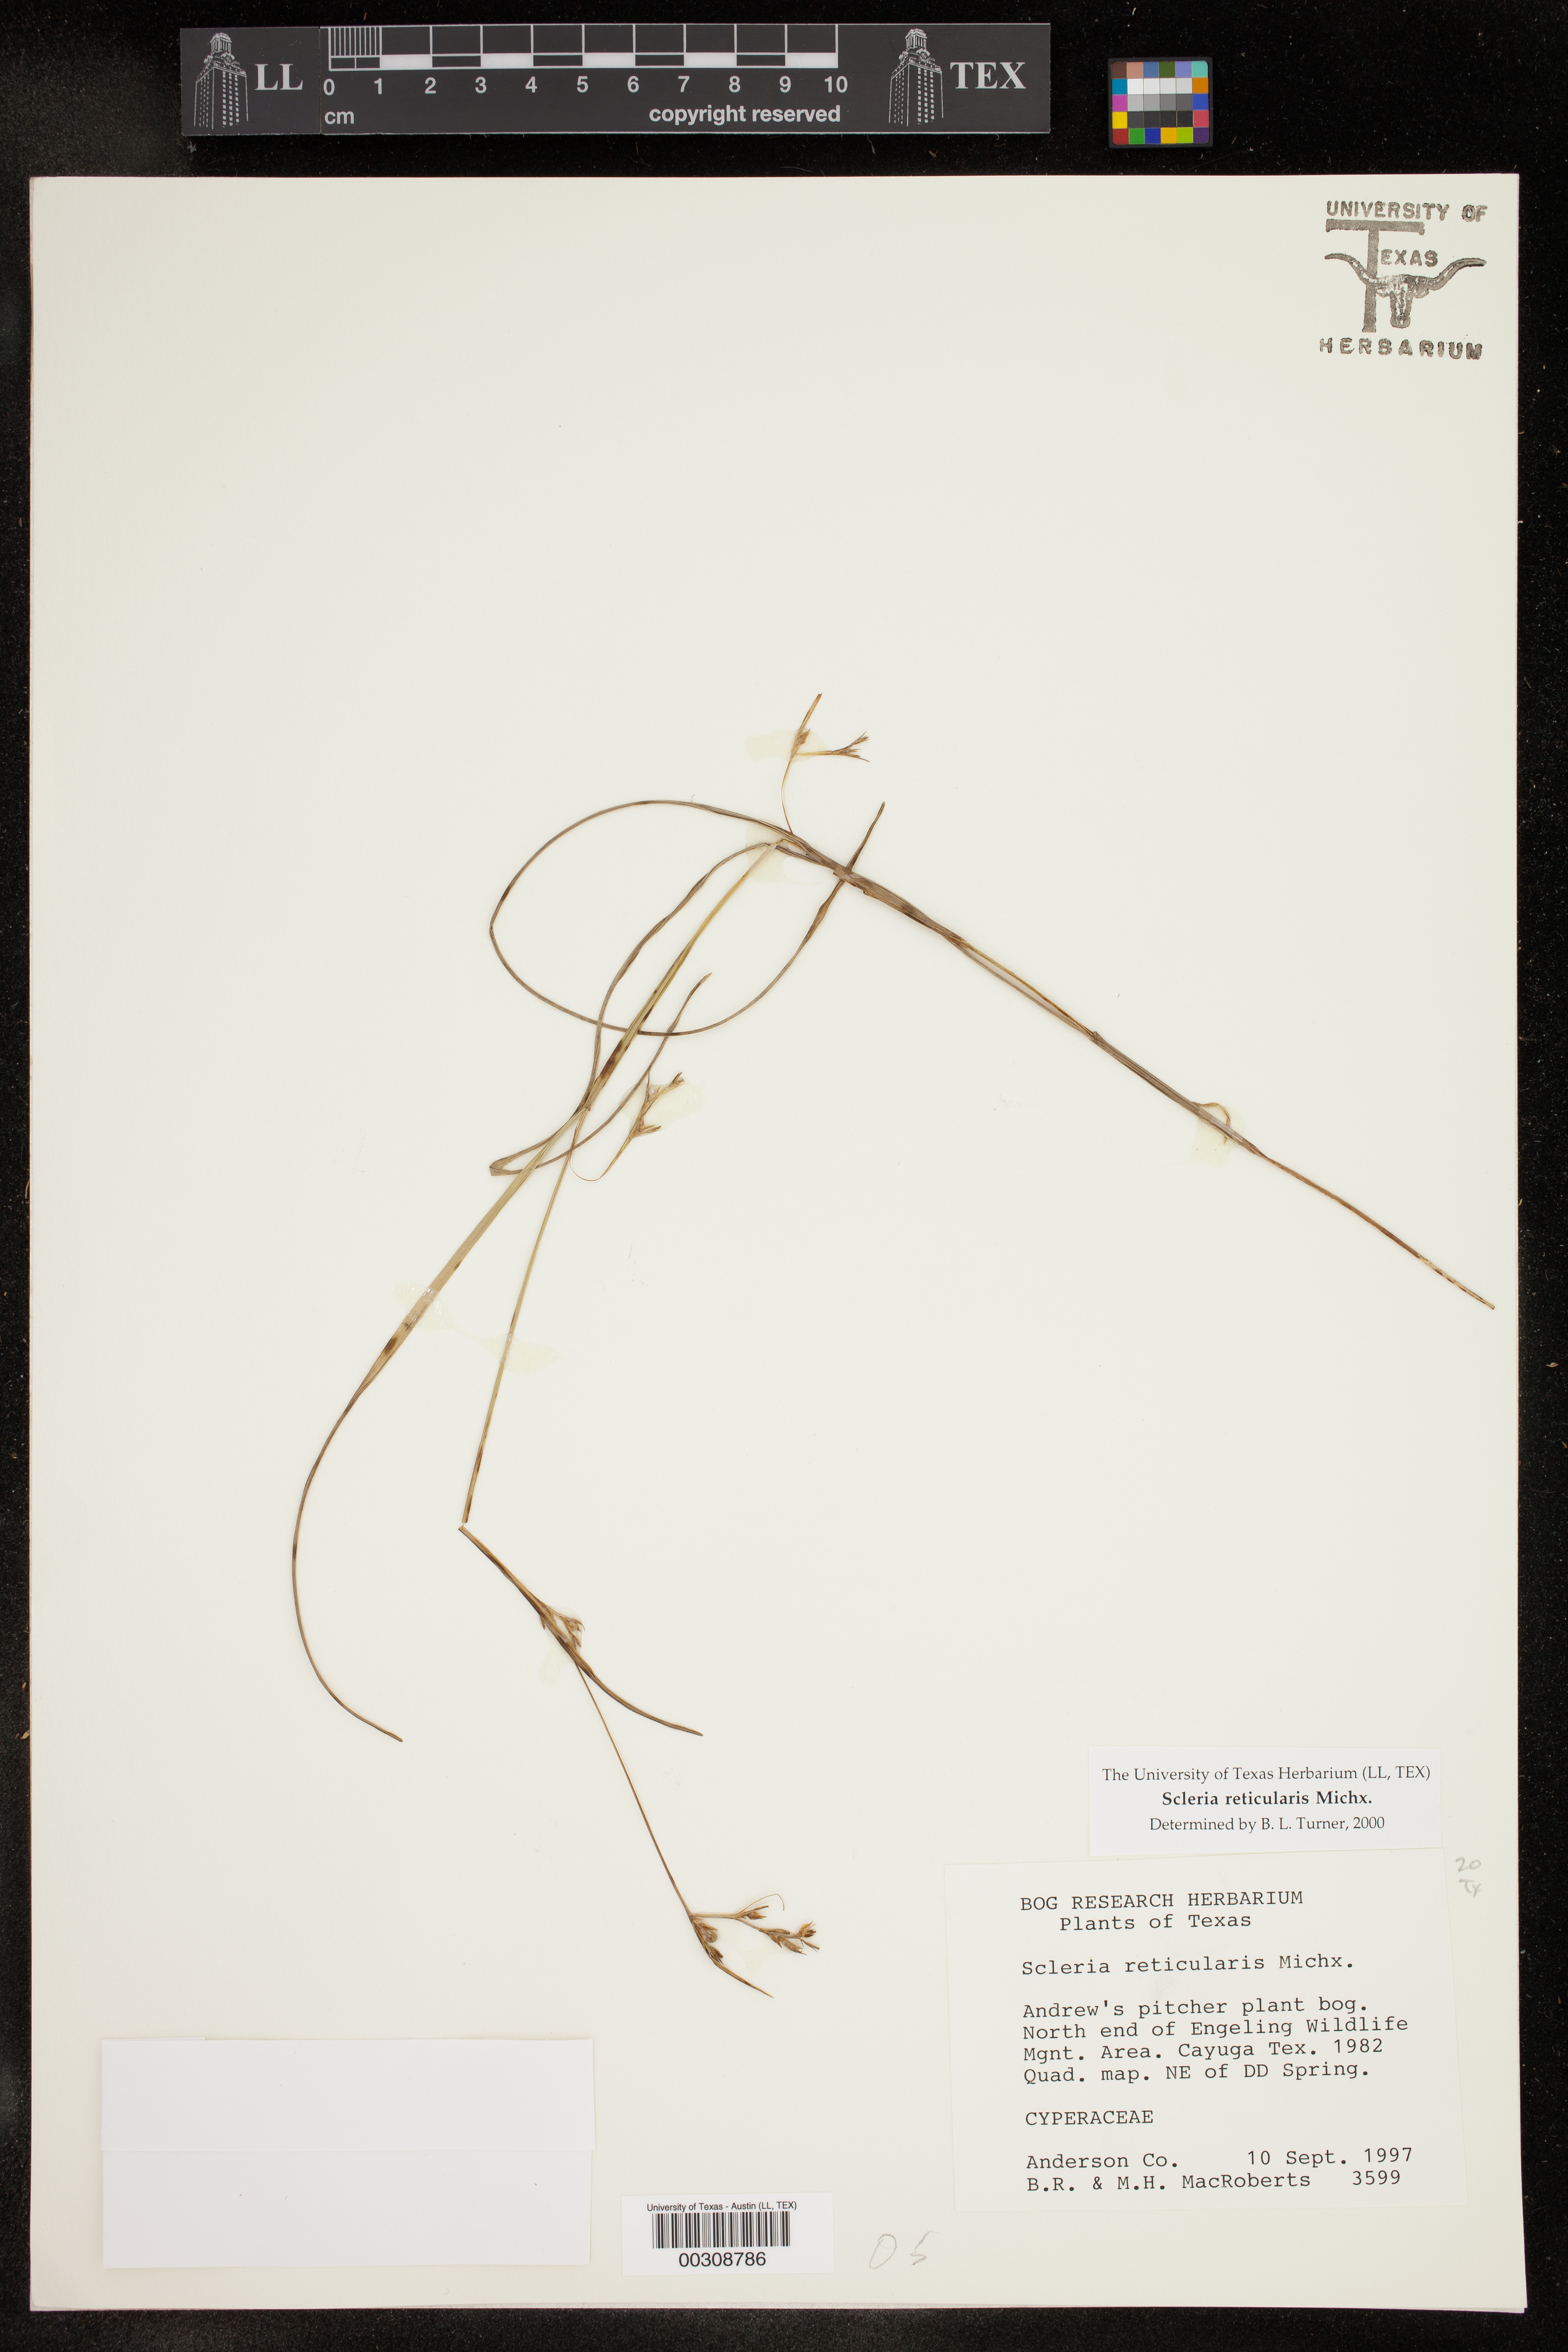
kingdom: Plantae
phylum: Tracheophyta
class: Liliopsida
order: Poales
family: Cyperaceae
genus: Scleria
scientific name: Scleria reticularis
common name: Netted nutrush
